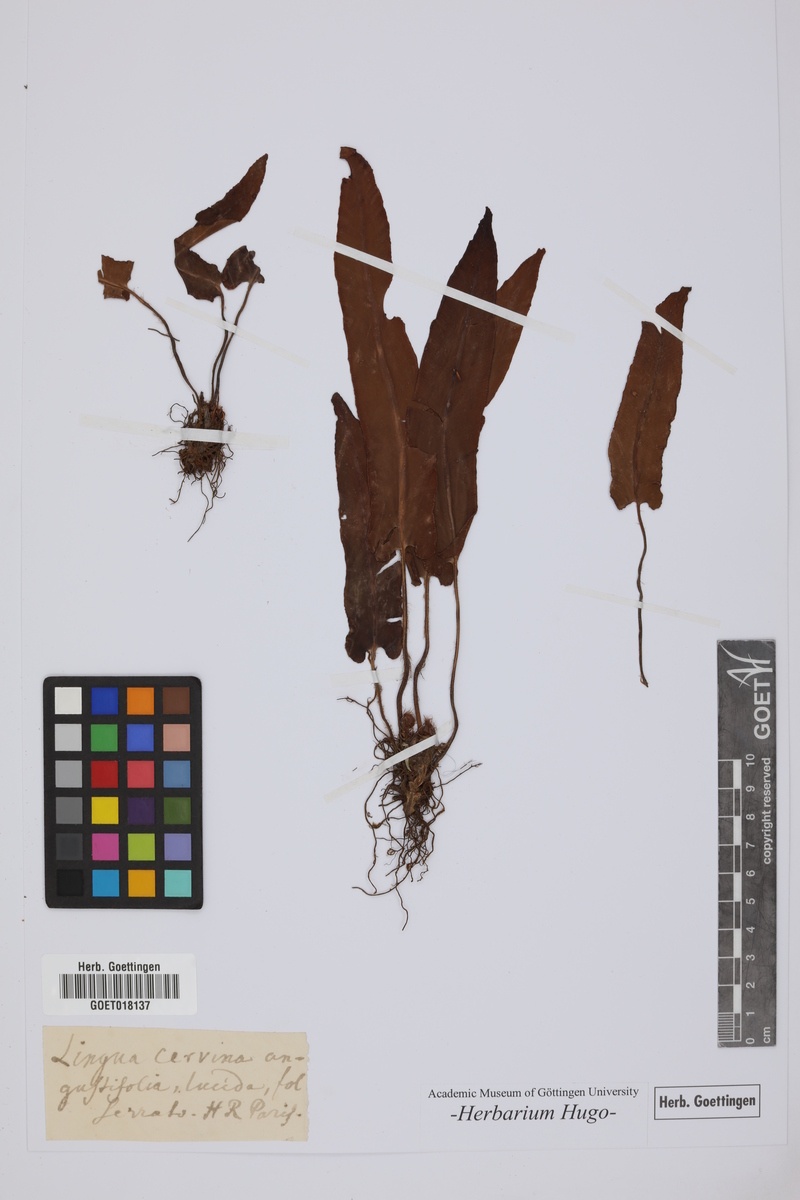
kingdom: Plantae
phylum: Tracheophyta
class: Polypodiopsida
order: Polypodiales
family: Aspleniaceae
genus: Asplenium
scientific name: Asplenium scolopendrium
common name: Hart's-tongue fern
